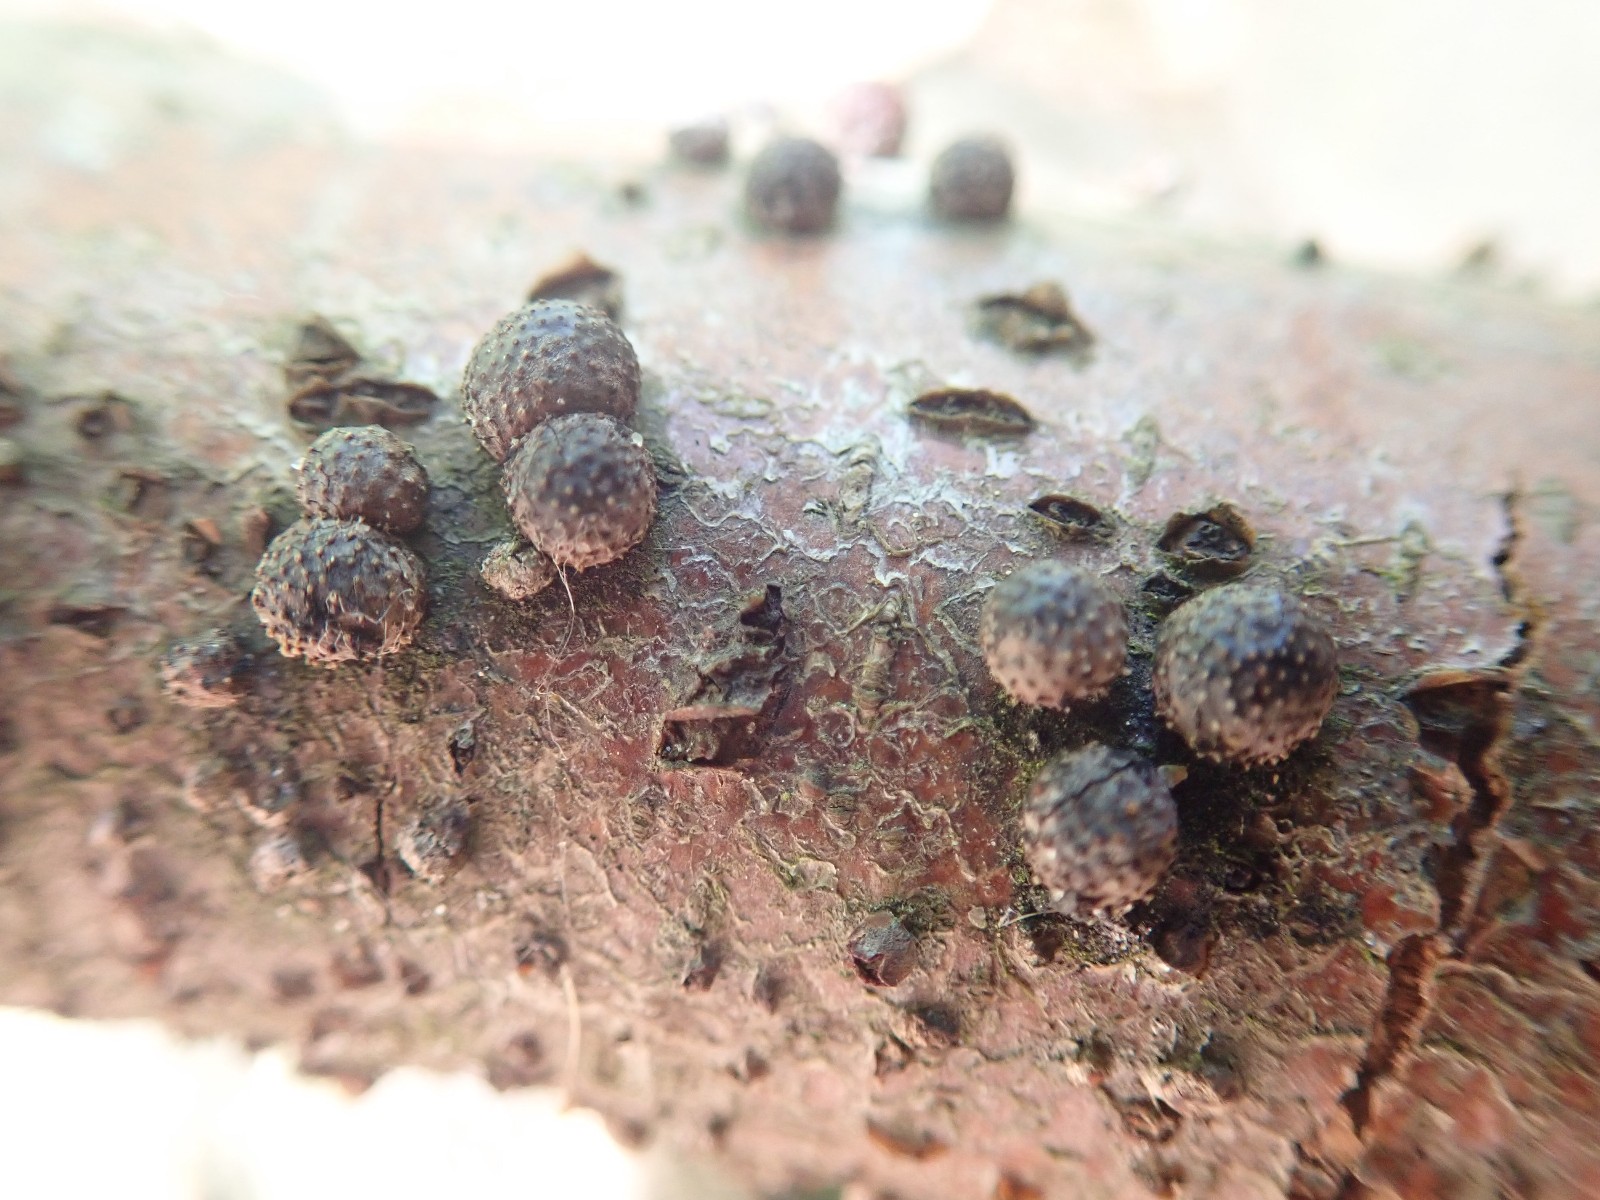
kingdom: Fungi
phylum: Ascomycota
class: Sordariomycetes
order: Xylariales
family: Hypoxylaceae
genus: Hypoxylon
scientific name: Hypoxylon fragiforme
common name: kuljordbær
